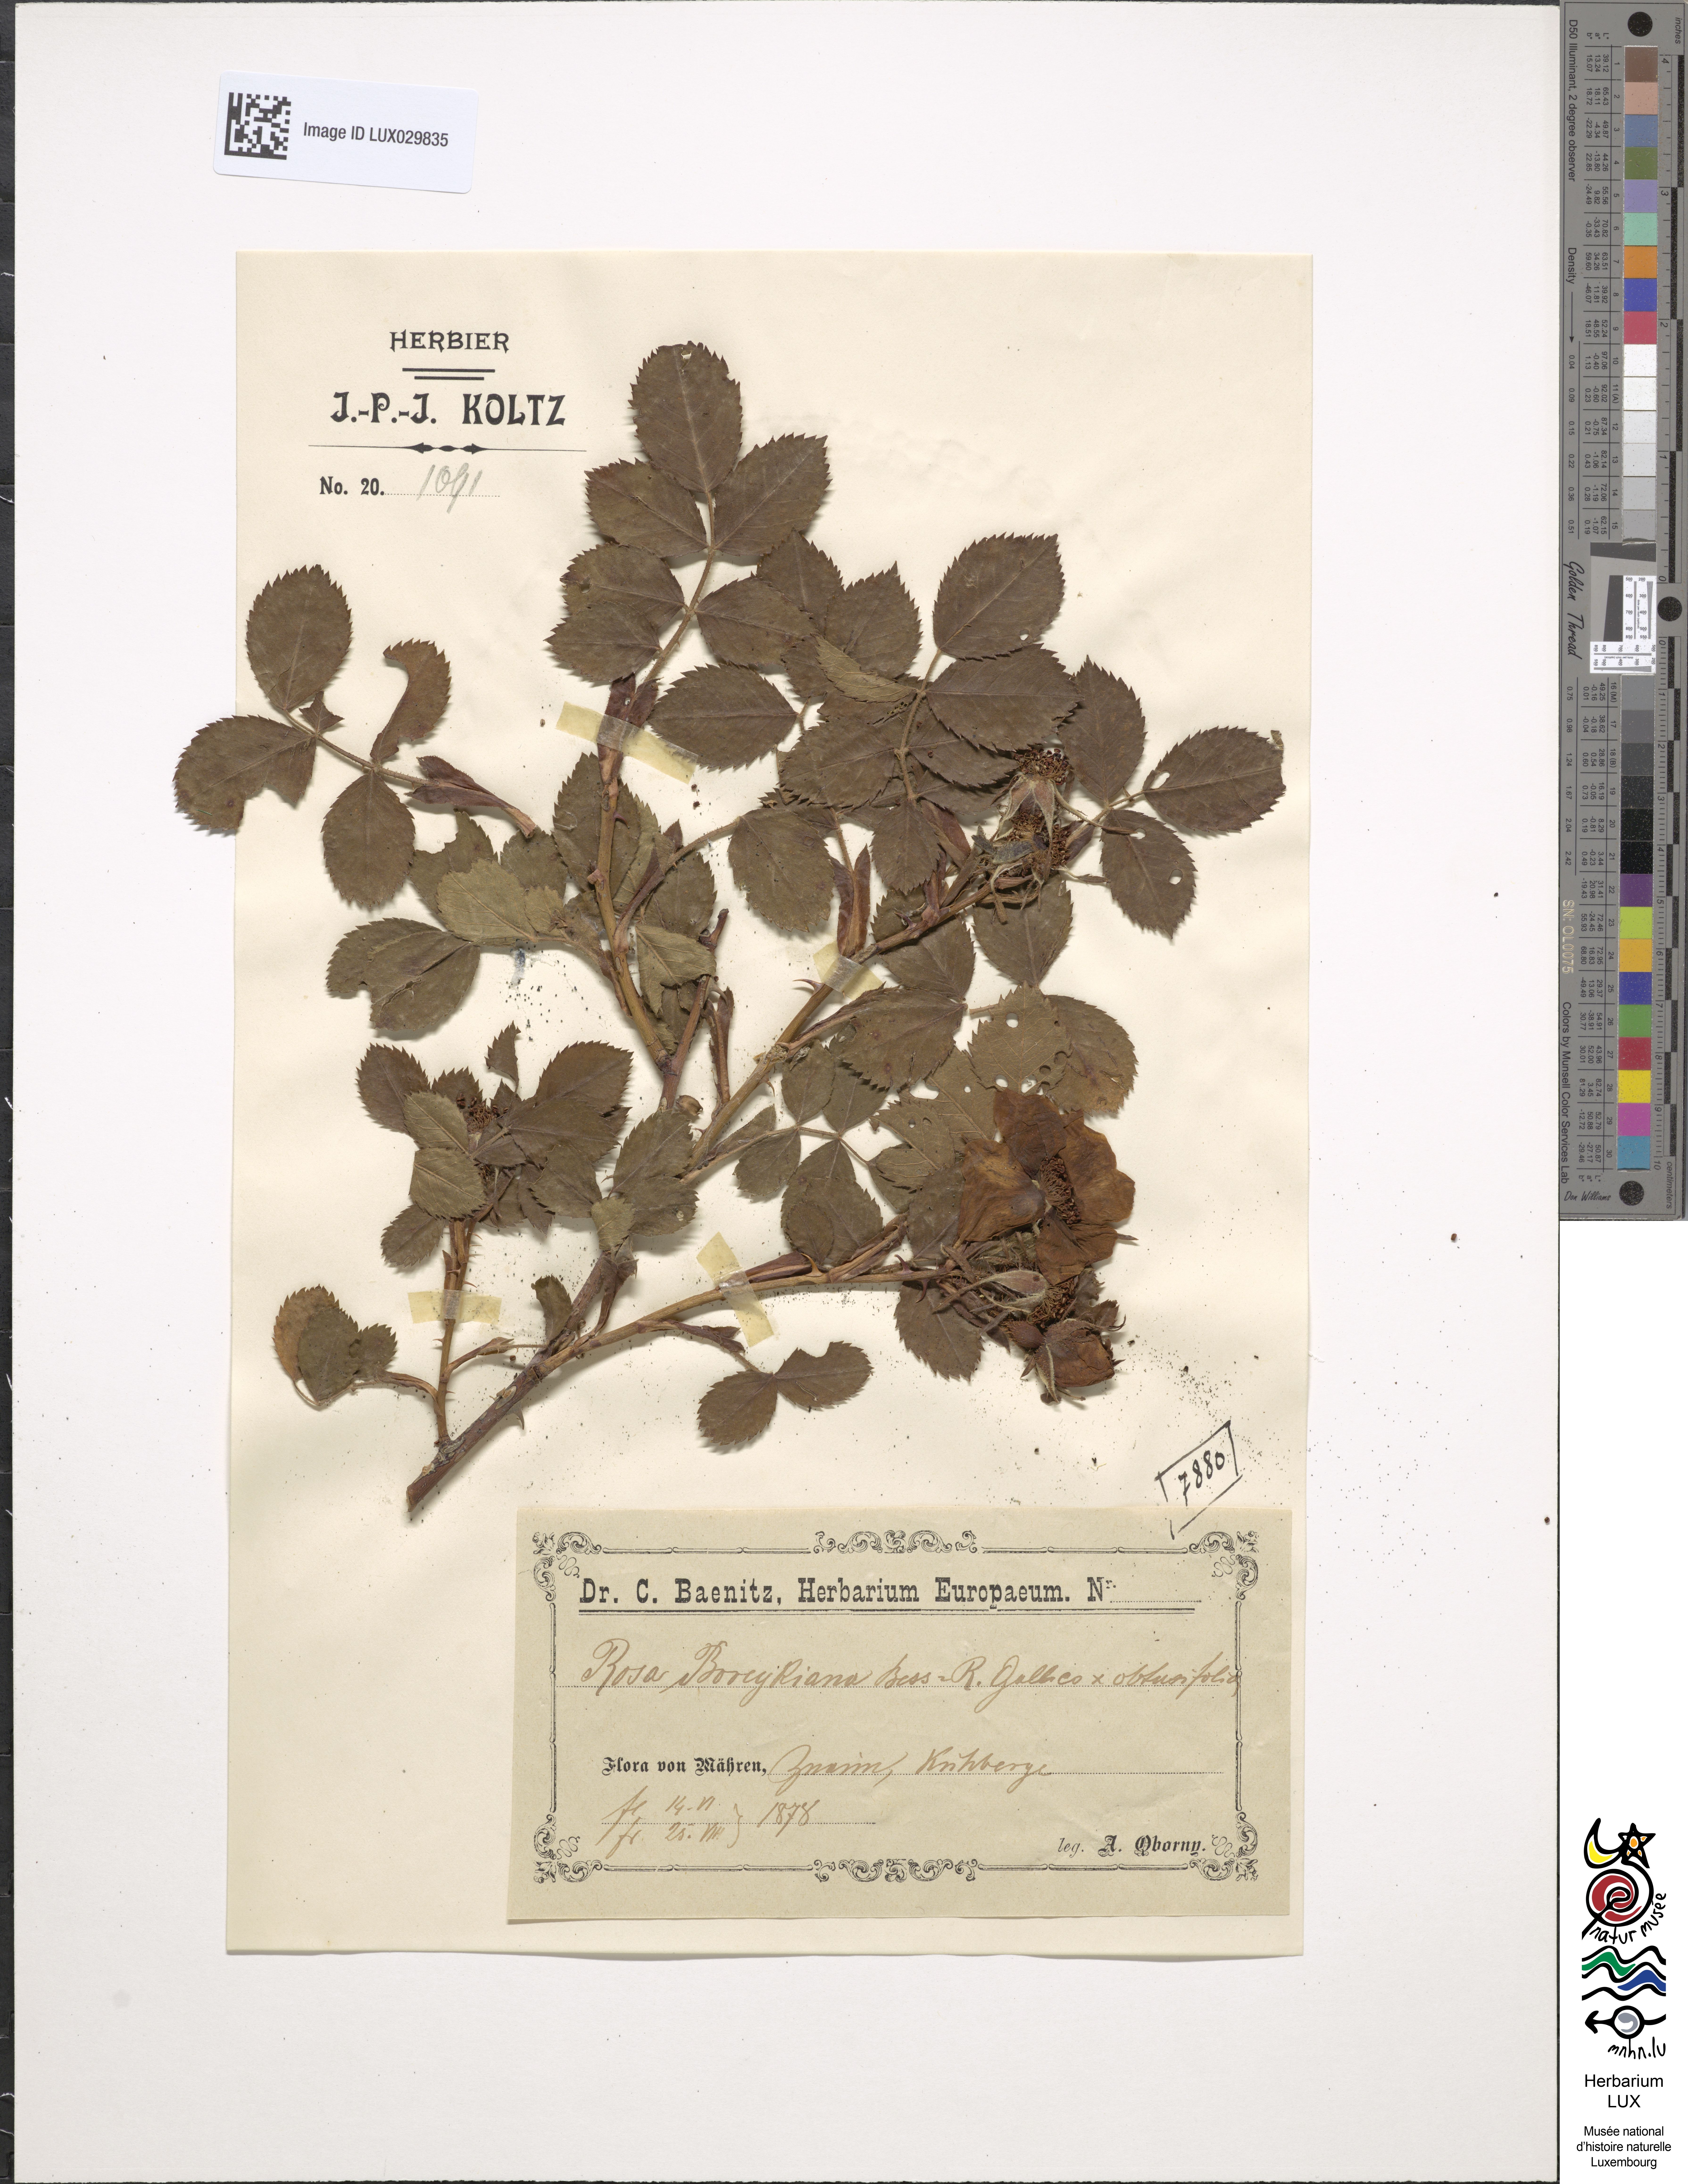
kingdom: Plantae
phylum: Tracheophyta
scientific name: Tracheophyta
